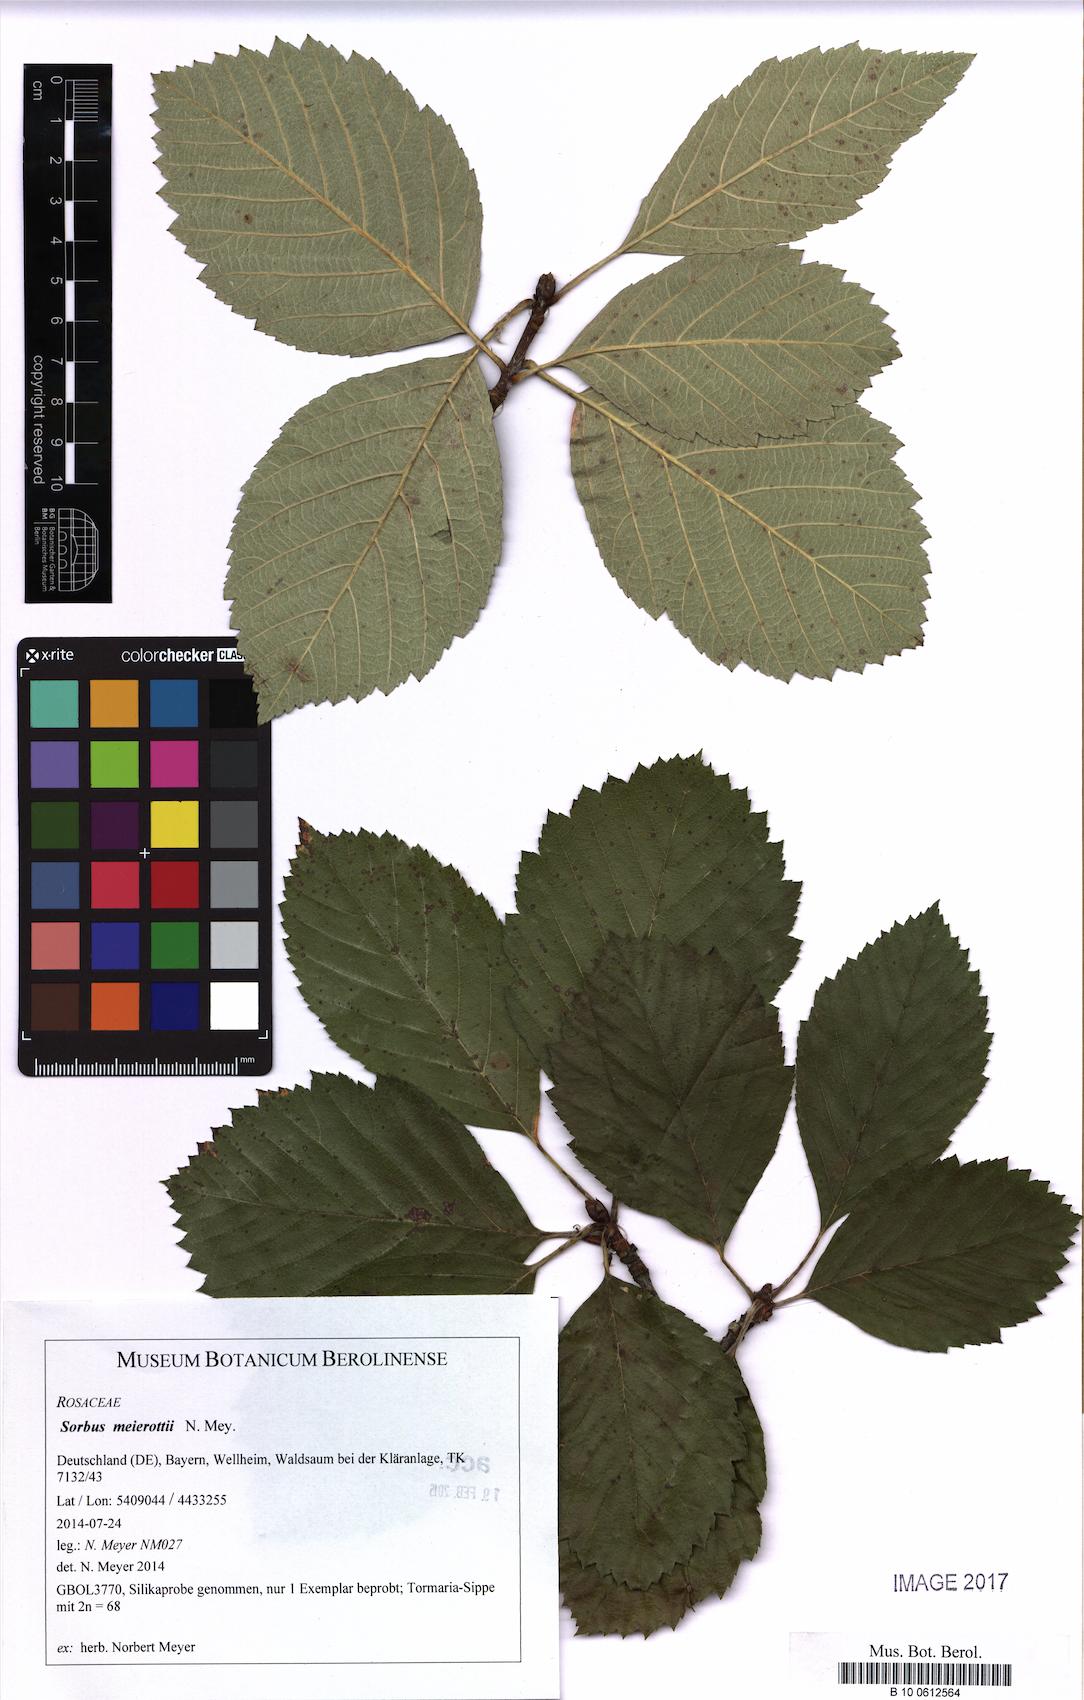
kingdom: Plantae
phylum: Tracheophyta
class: Magnoliopsida
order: Rosales
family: Rosaceae
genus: Karpatiosorbus
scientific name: Karpatiosorbus meierottii
